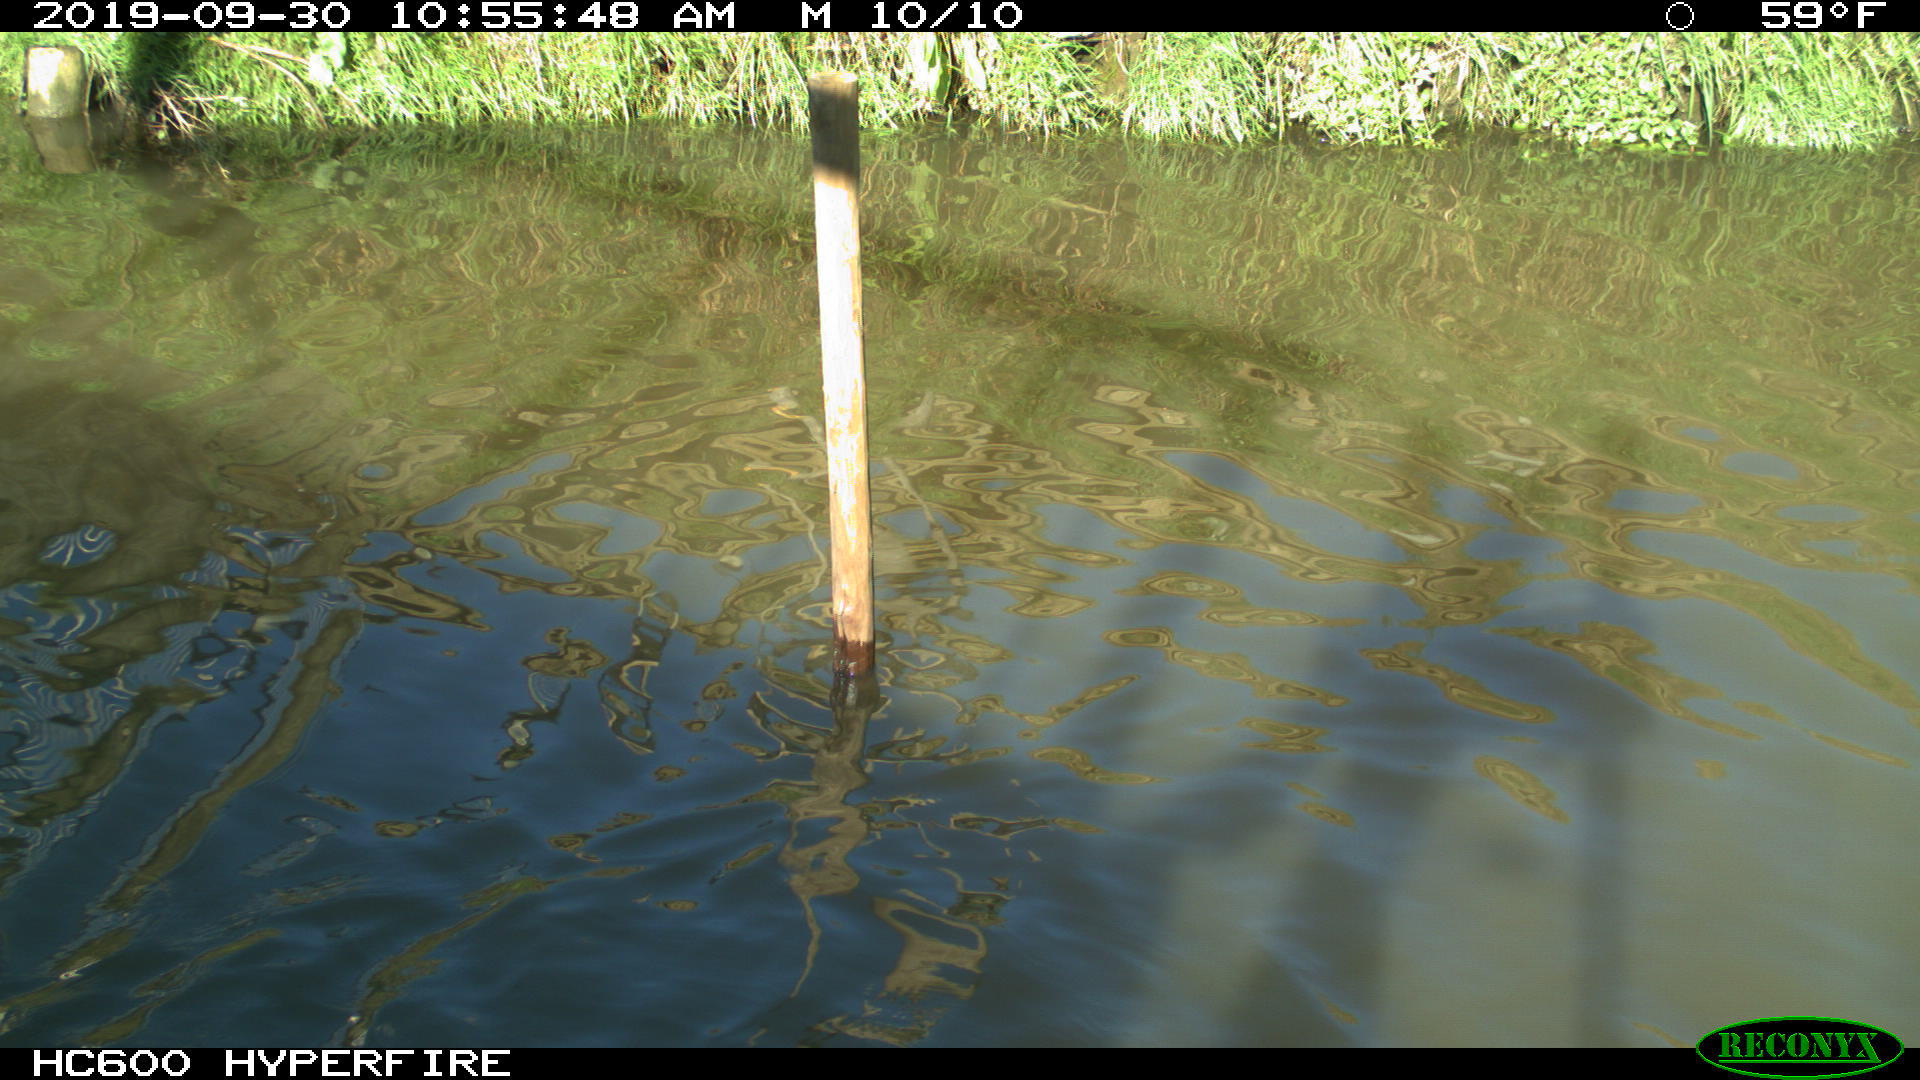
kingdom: Animalia
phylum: Chordata
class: Aves
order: Gruiformes
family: Rallidae
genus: Gallinula
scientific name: Gallinula chloropus
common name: Common moorhen
